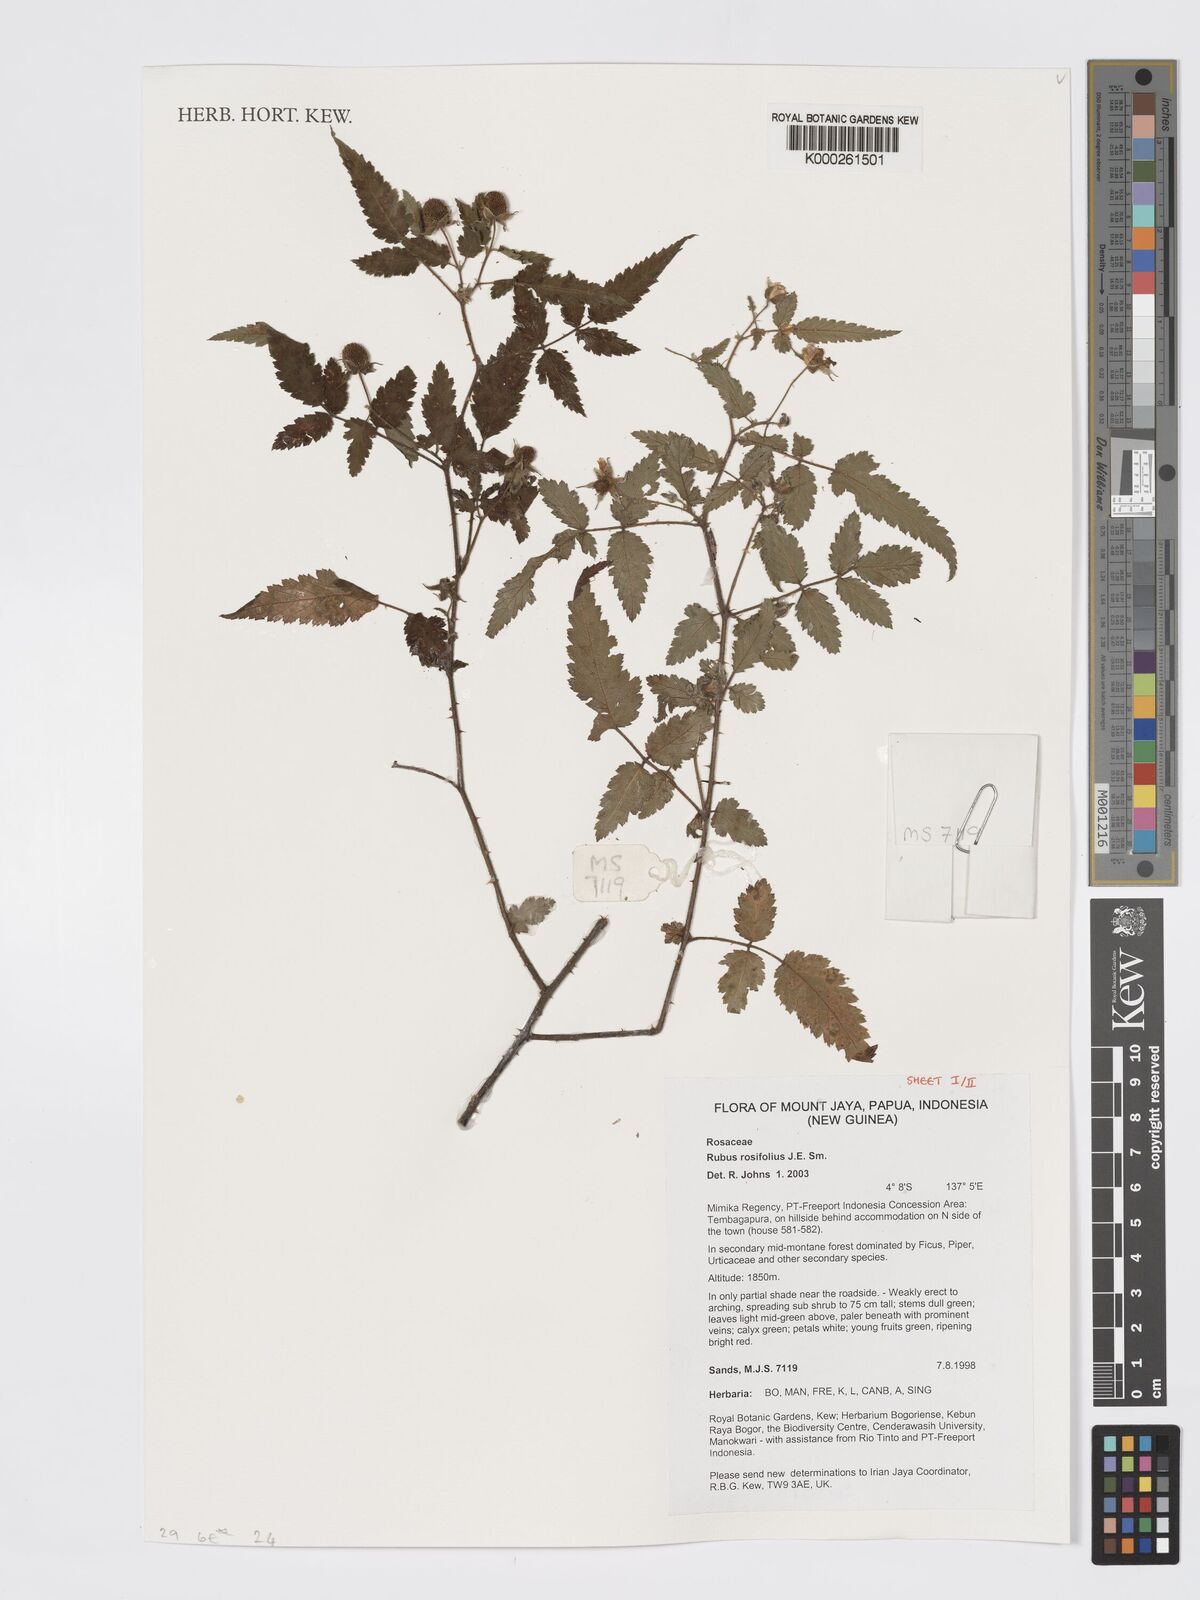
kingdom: Plantae
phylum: Tracheophyta
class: Magnoliopsida
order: Rosales
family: Rosaceae
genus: Rubus
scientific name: Rubus
